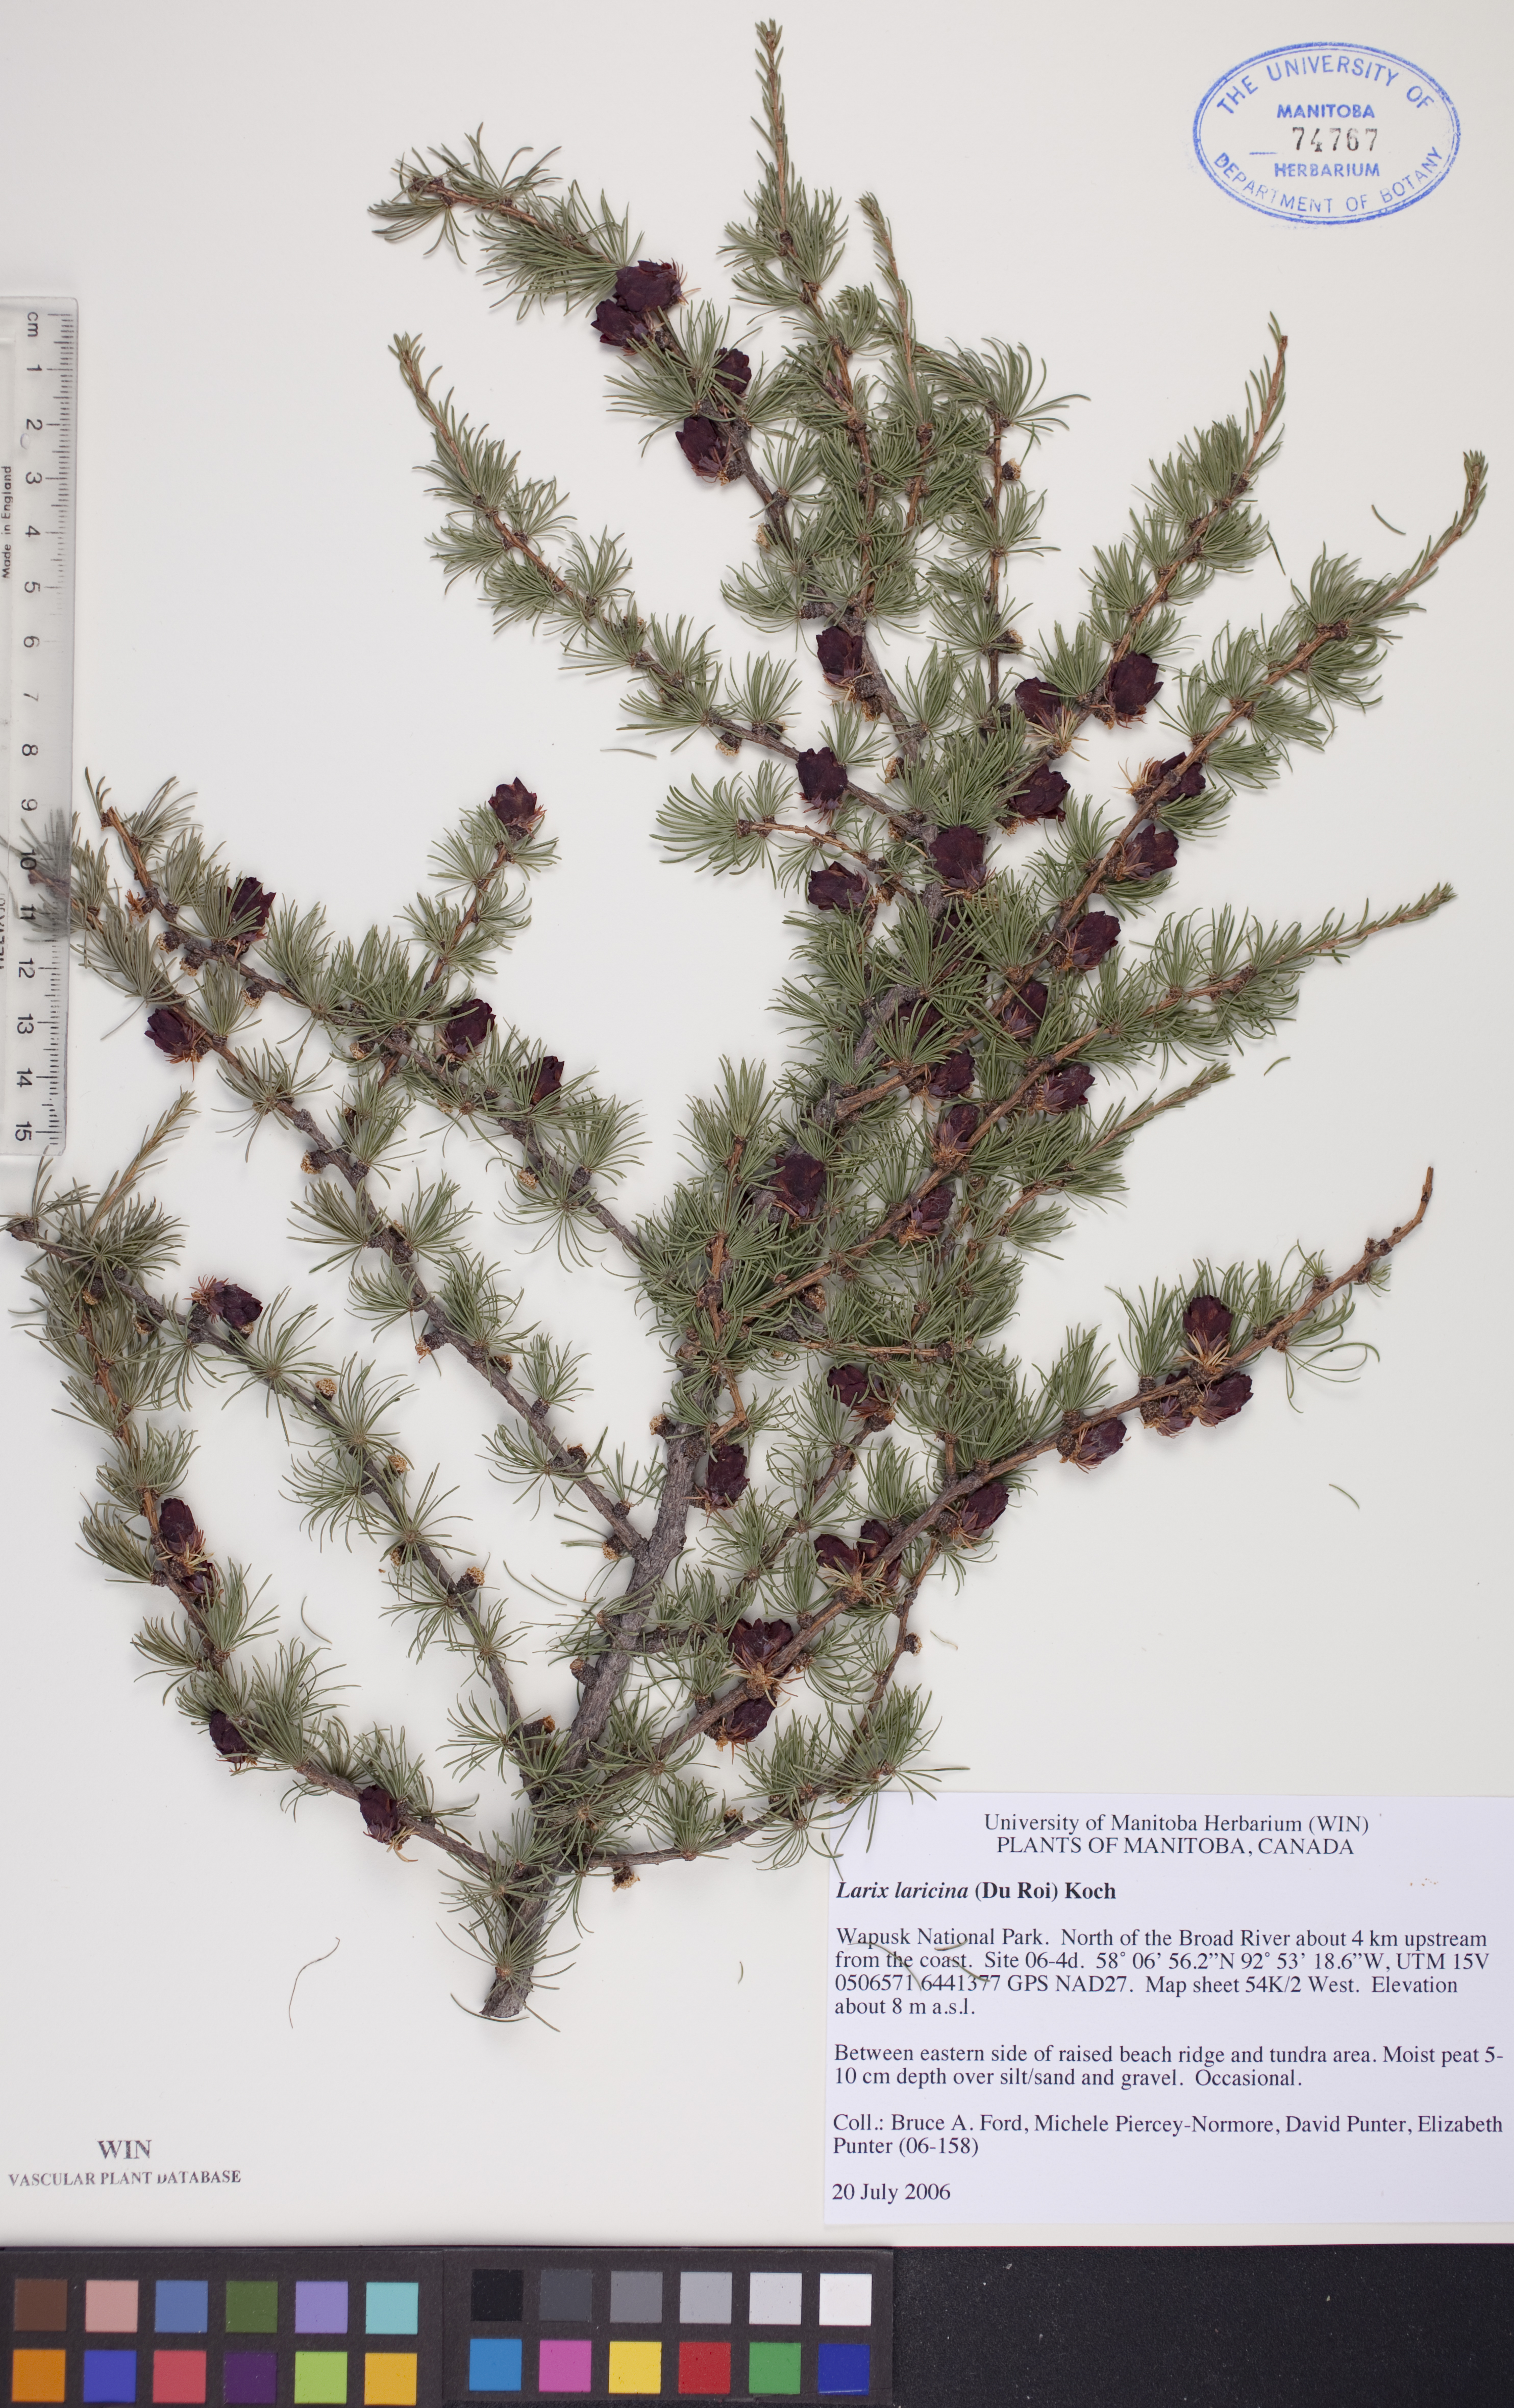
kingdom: Plantae
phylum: Tracheophyta
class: Pinopsida
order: Pinales
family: Pinaceae
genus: Larix
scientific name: Larix laricina
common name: American larch
